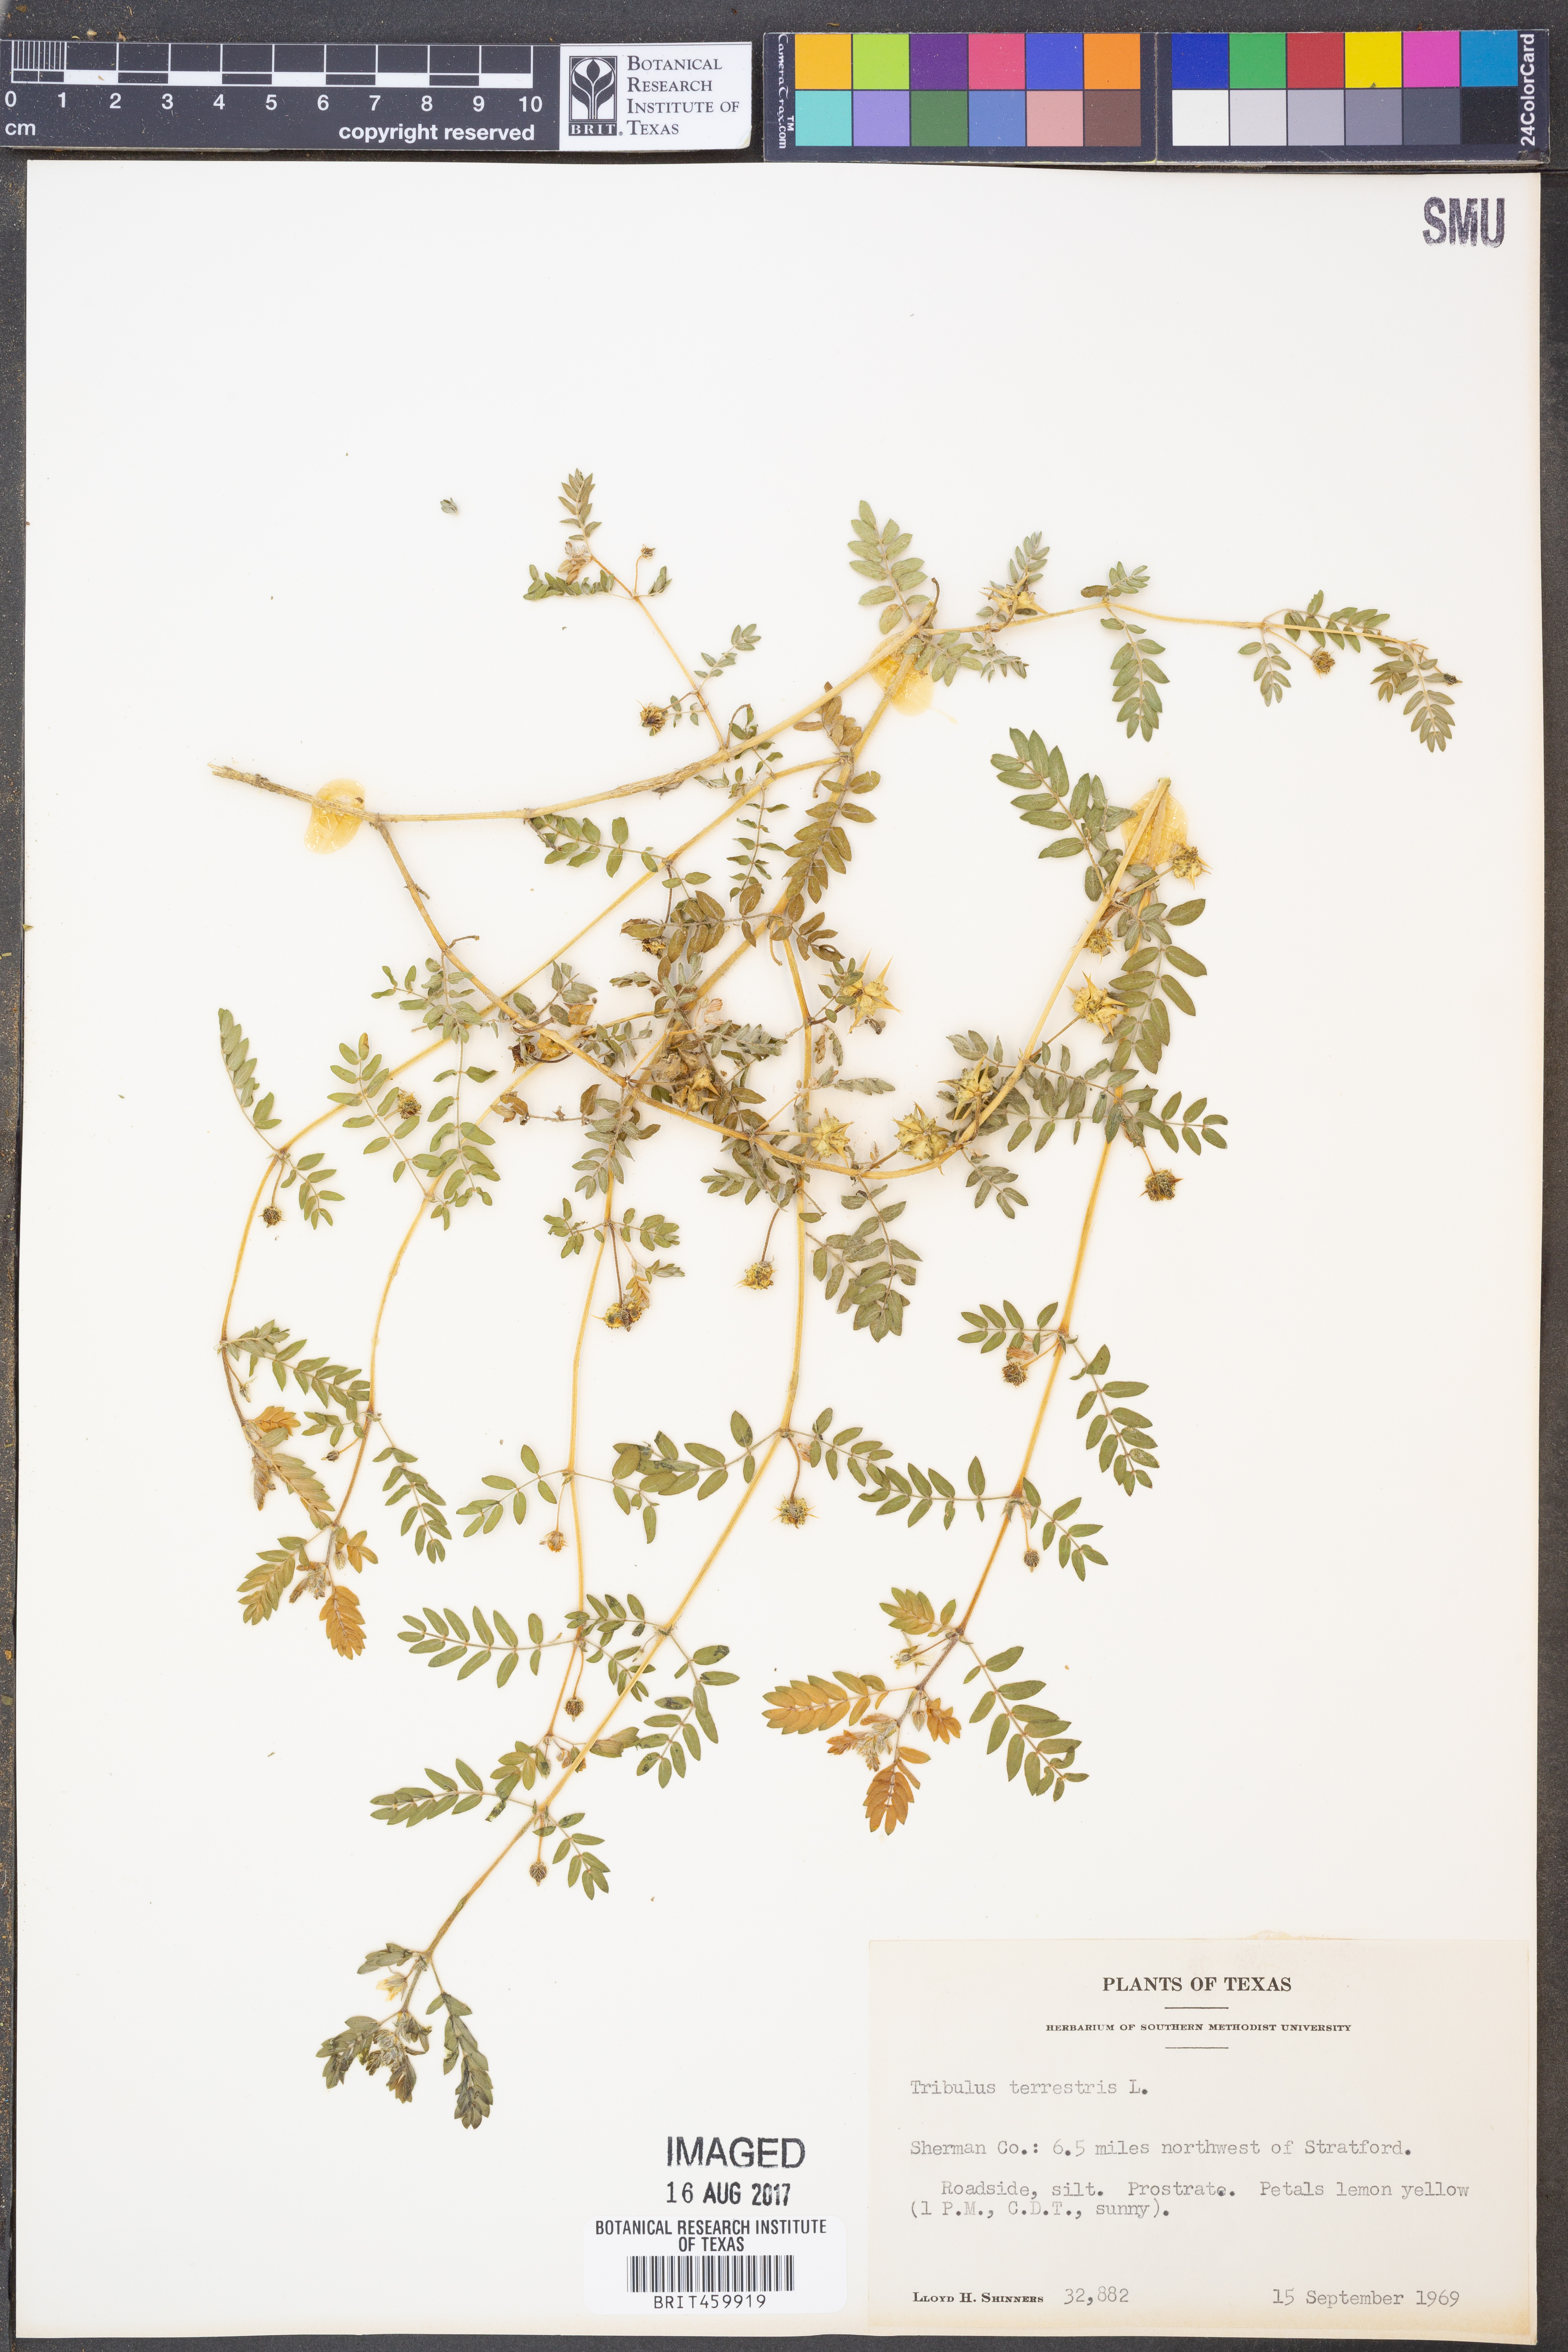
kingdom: Plantae
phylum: Tracheophyta
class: Magnoliopsida
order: Zygophyllales
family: Zygophyllaceae
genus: Tribulus
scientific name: Tribulus terrestris
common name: Puncturevine
